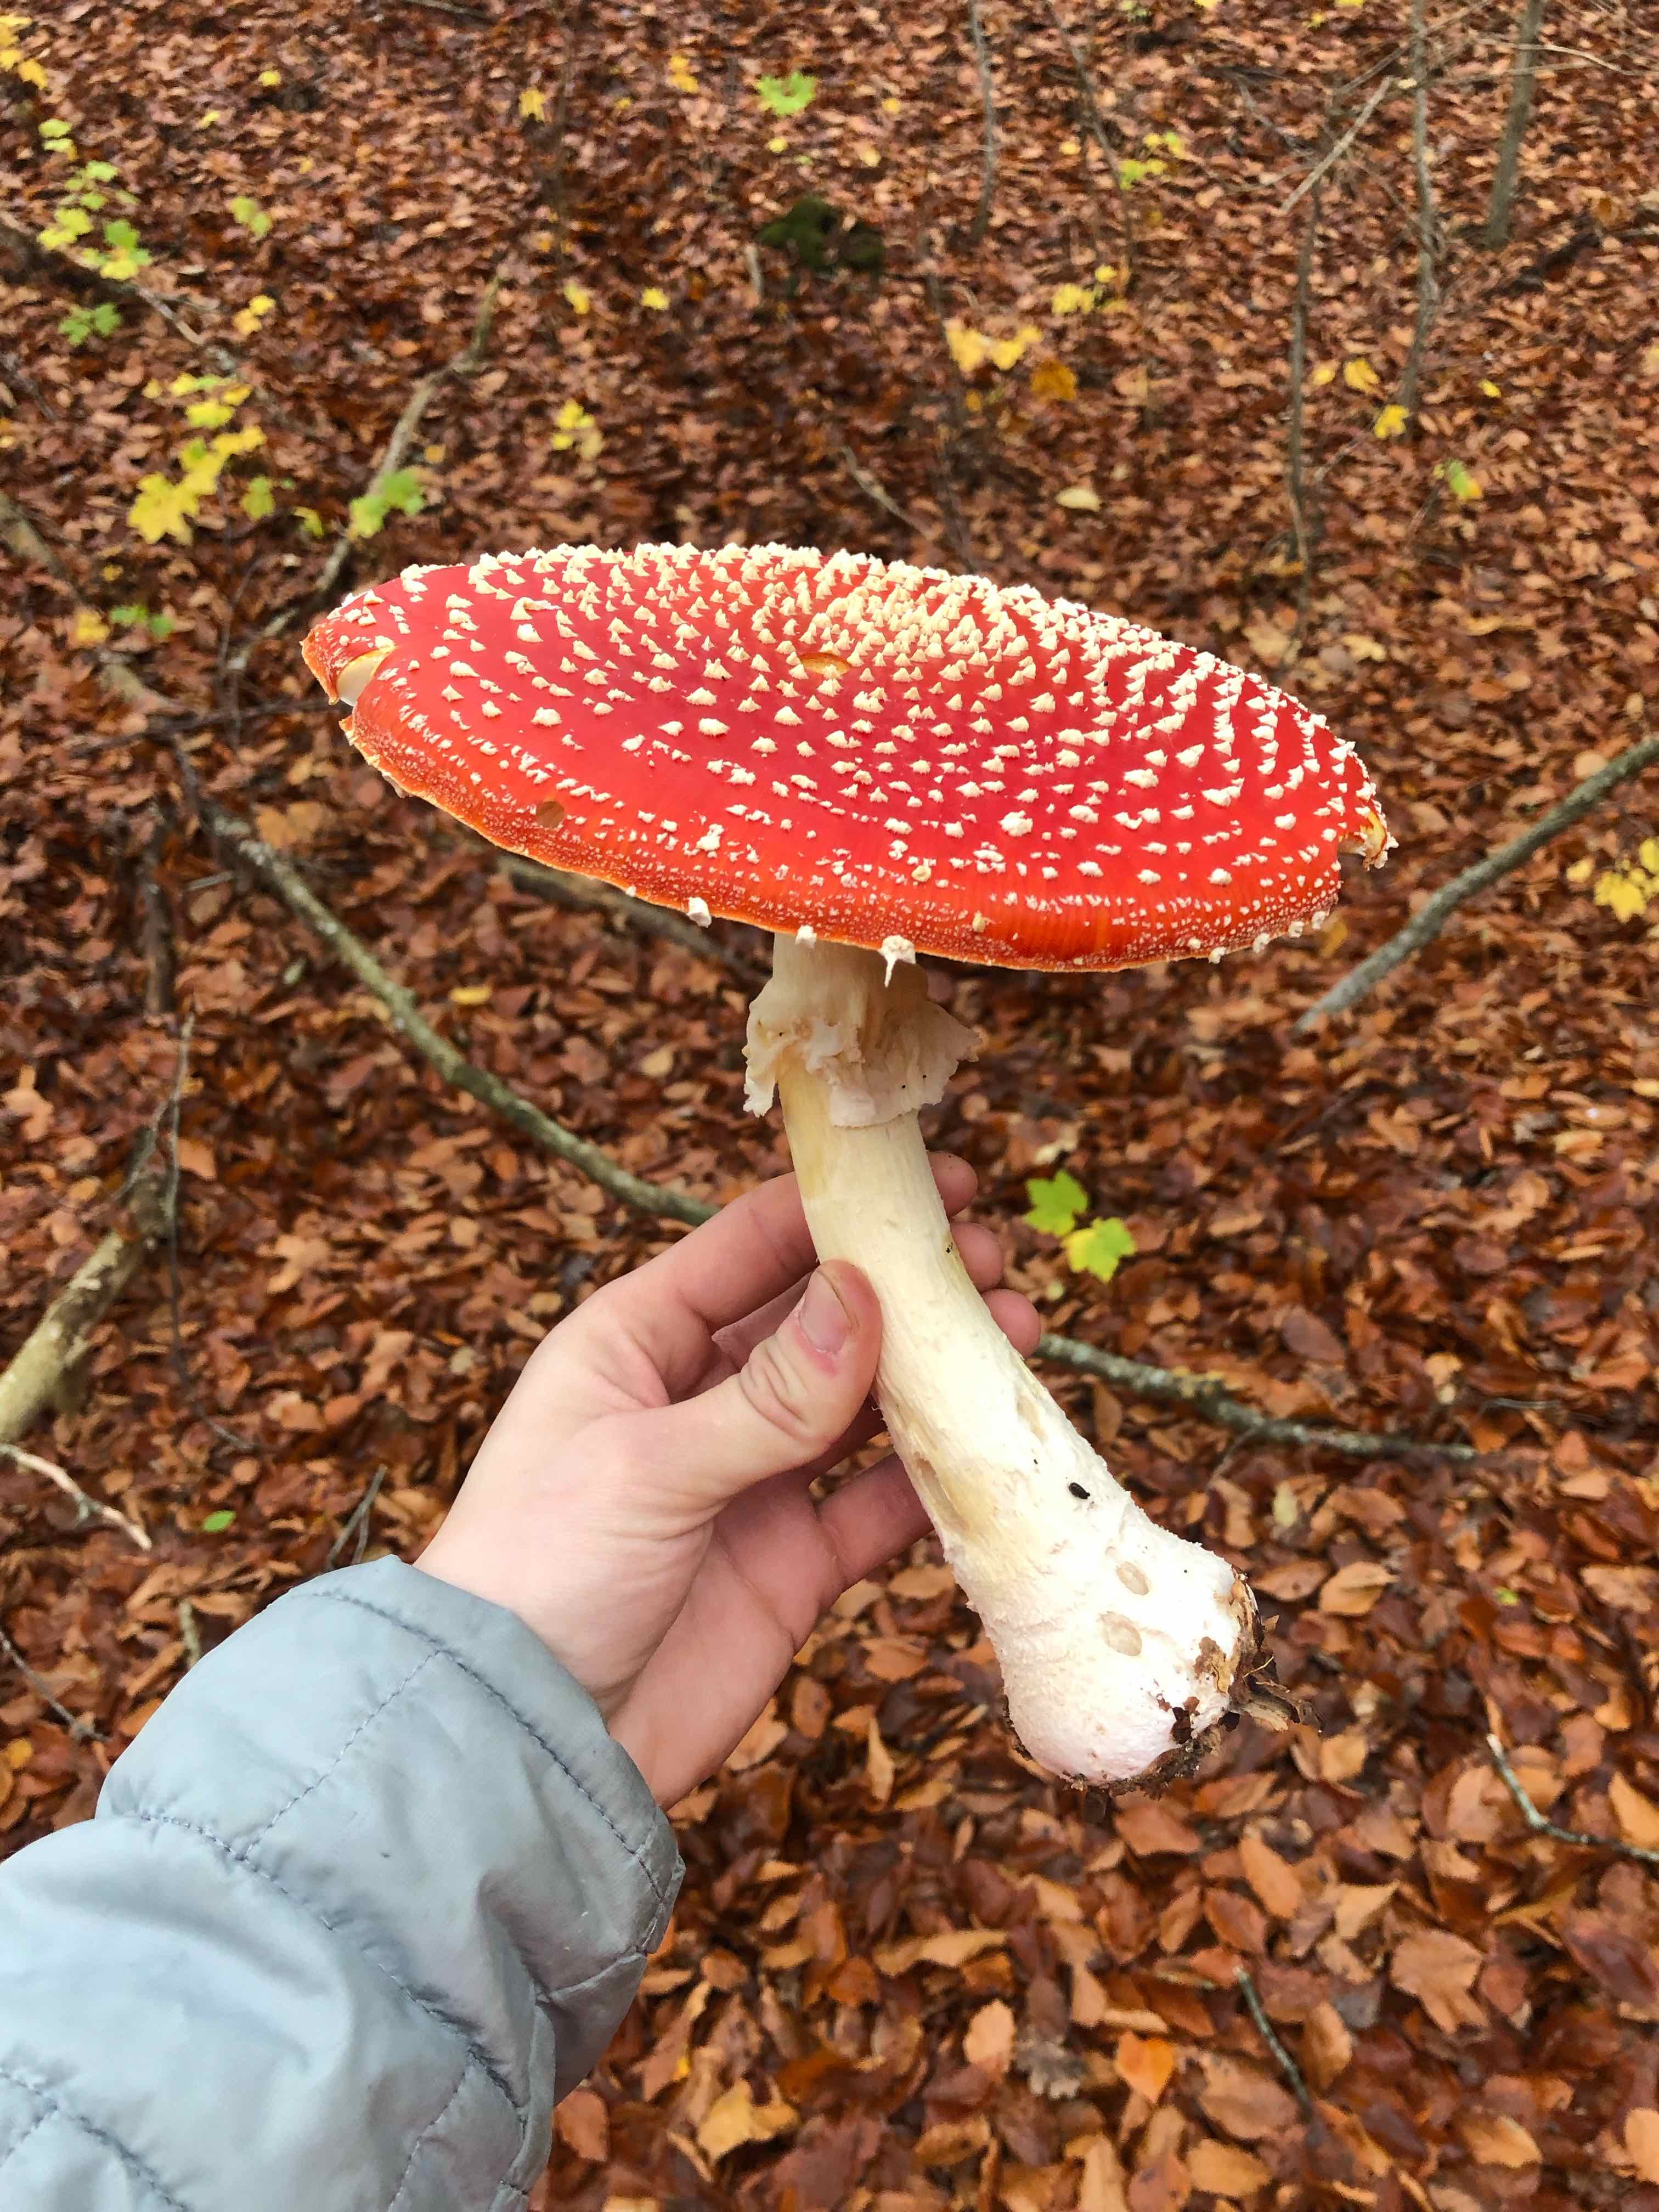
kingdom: Fungi
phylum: Basidiomycota
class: Agaricomycetes
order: Agaricales
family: Amanitaceae
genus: Amanita
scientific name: Amanita muscaria
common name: rød fluesvamp
